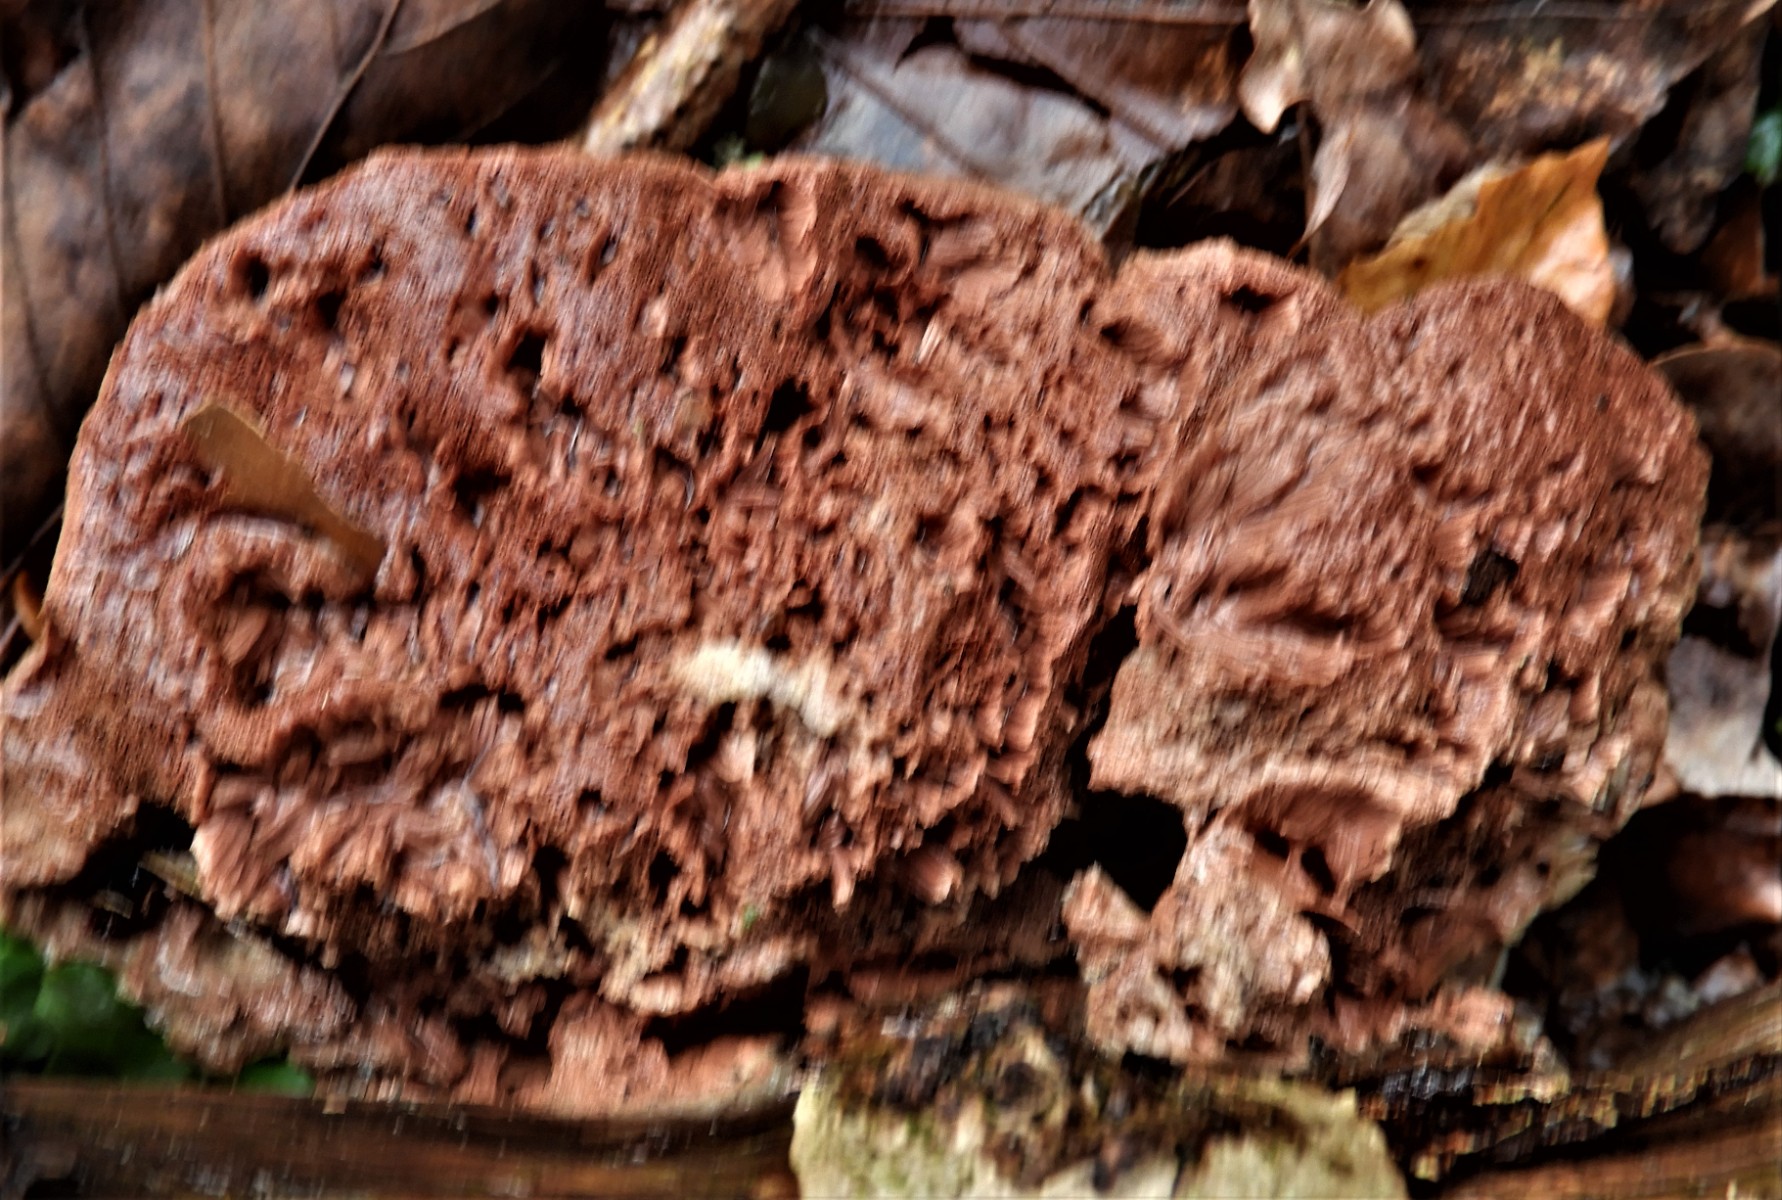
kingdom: Fungi
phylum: Basidiomycota
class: Agaricomycetes
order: Polyporales
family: Phanerochaetaceae
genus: Hapalopilus
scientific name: Hapalopilus rutilans
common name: rødlig okkerporesvamp
